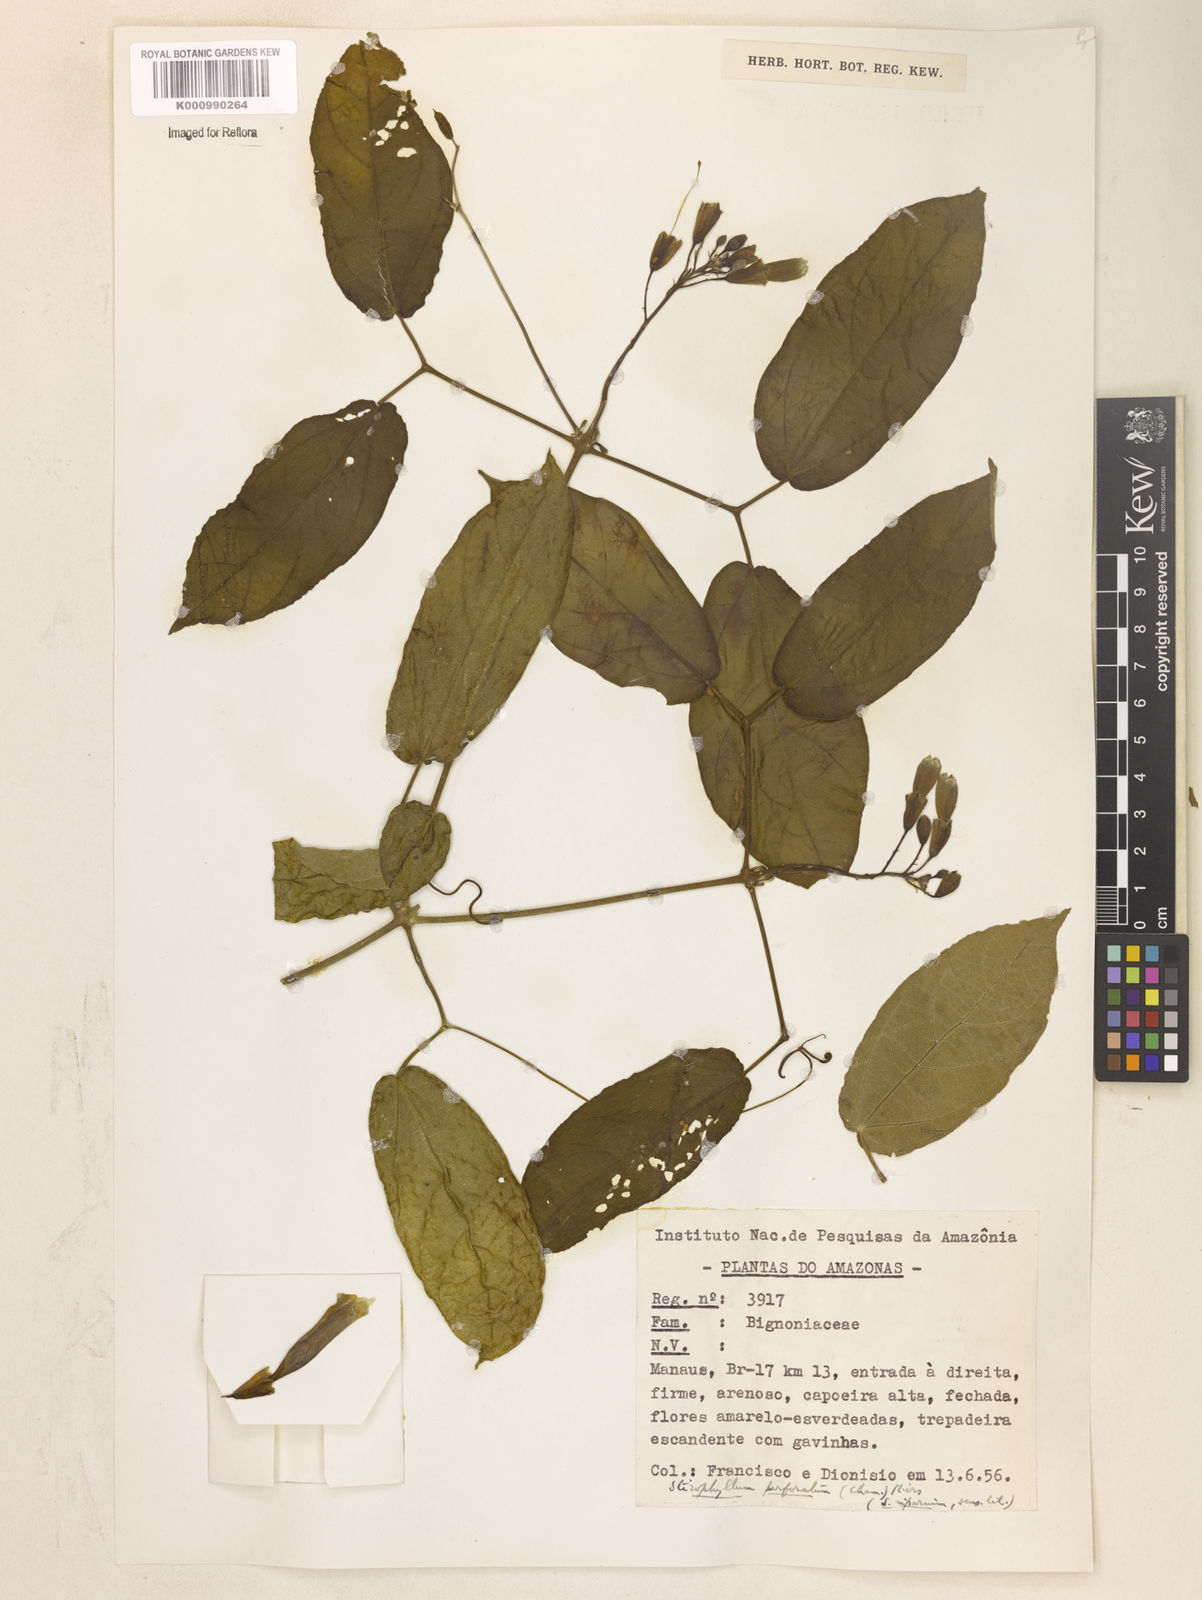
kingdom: Plantae
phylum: Tracheophyta
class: Magnoliopsida
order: Lamiales
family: Bignoniaceae
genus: Stizophyllum
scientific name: Stizophyllum riparium
